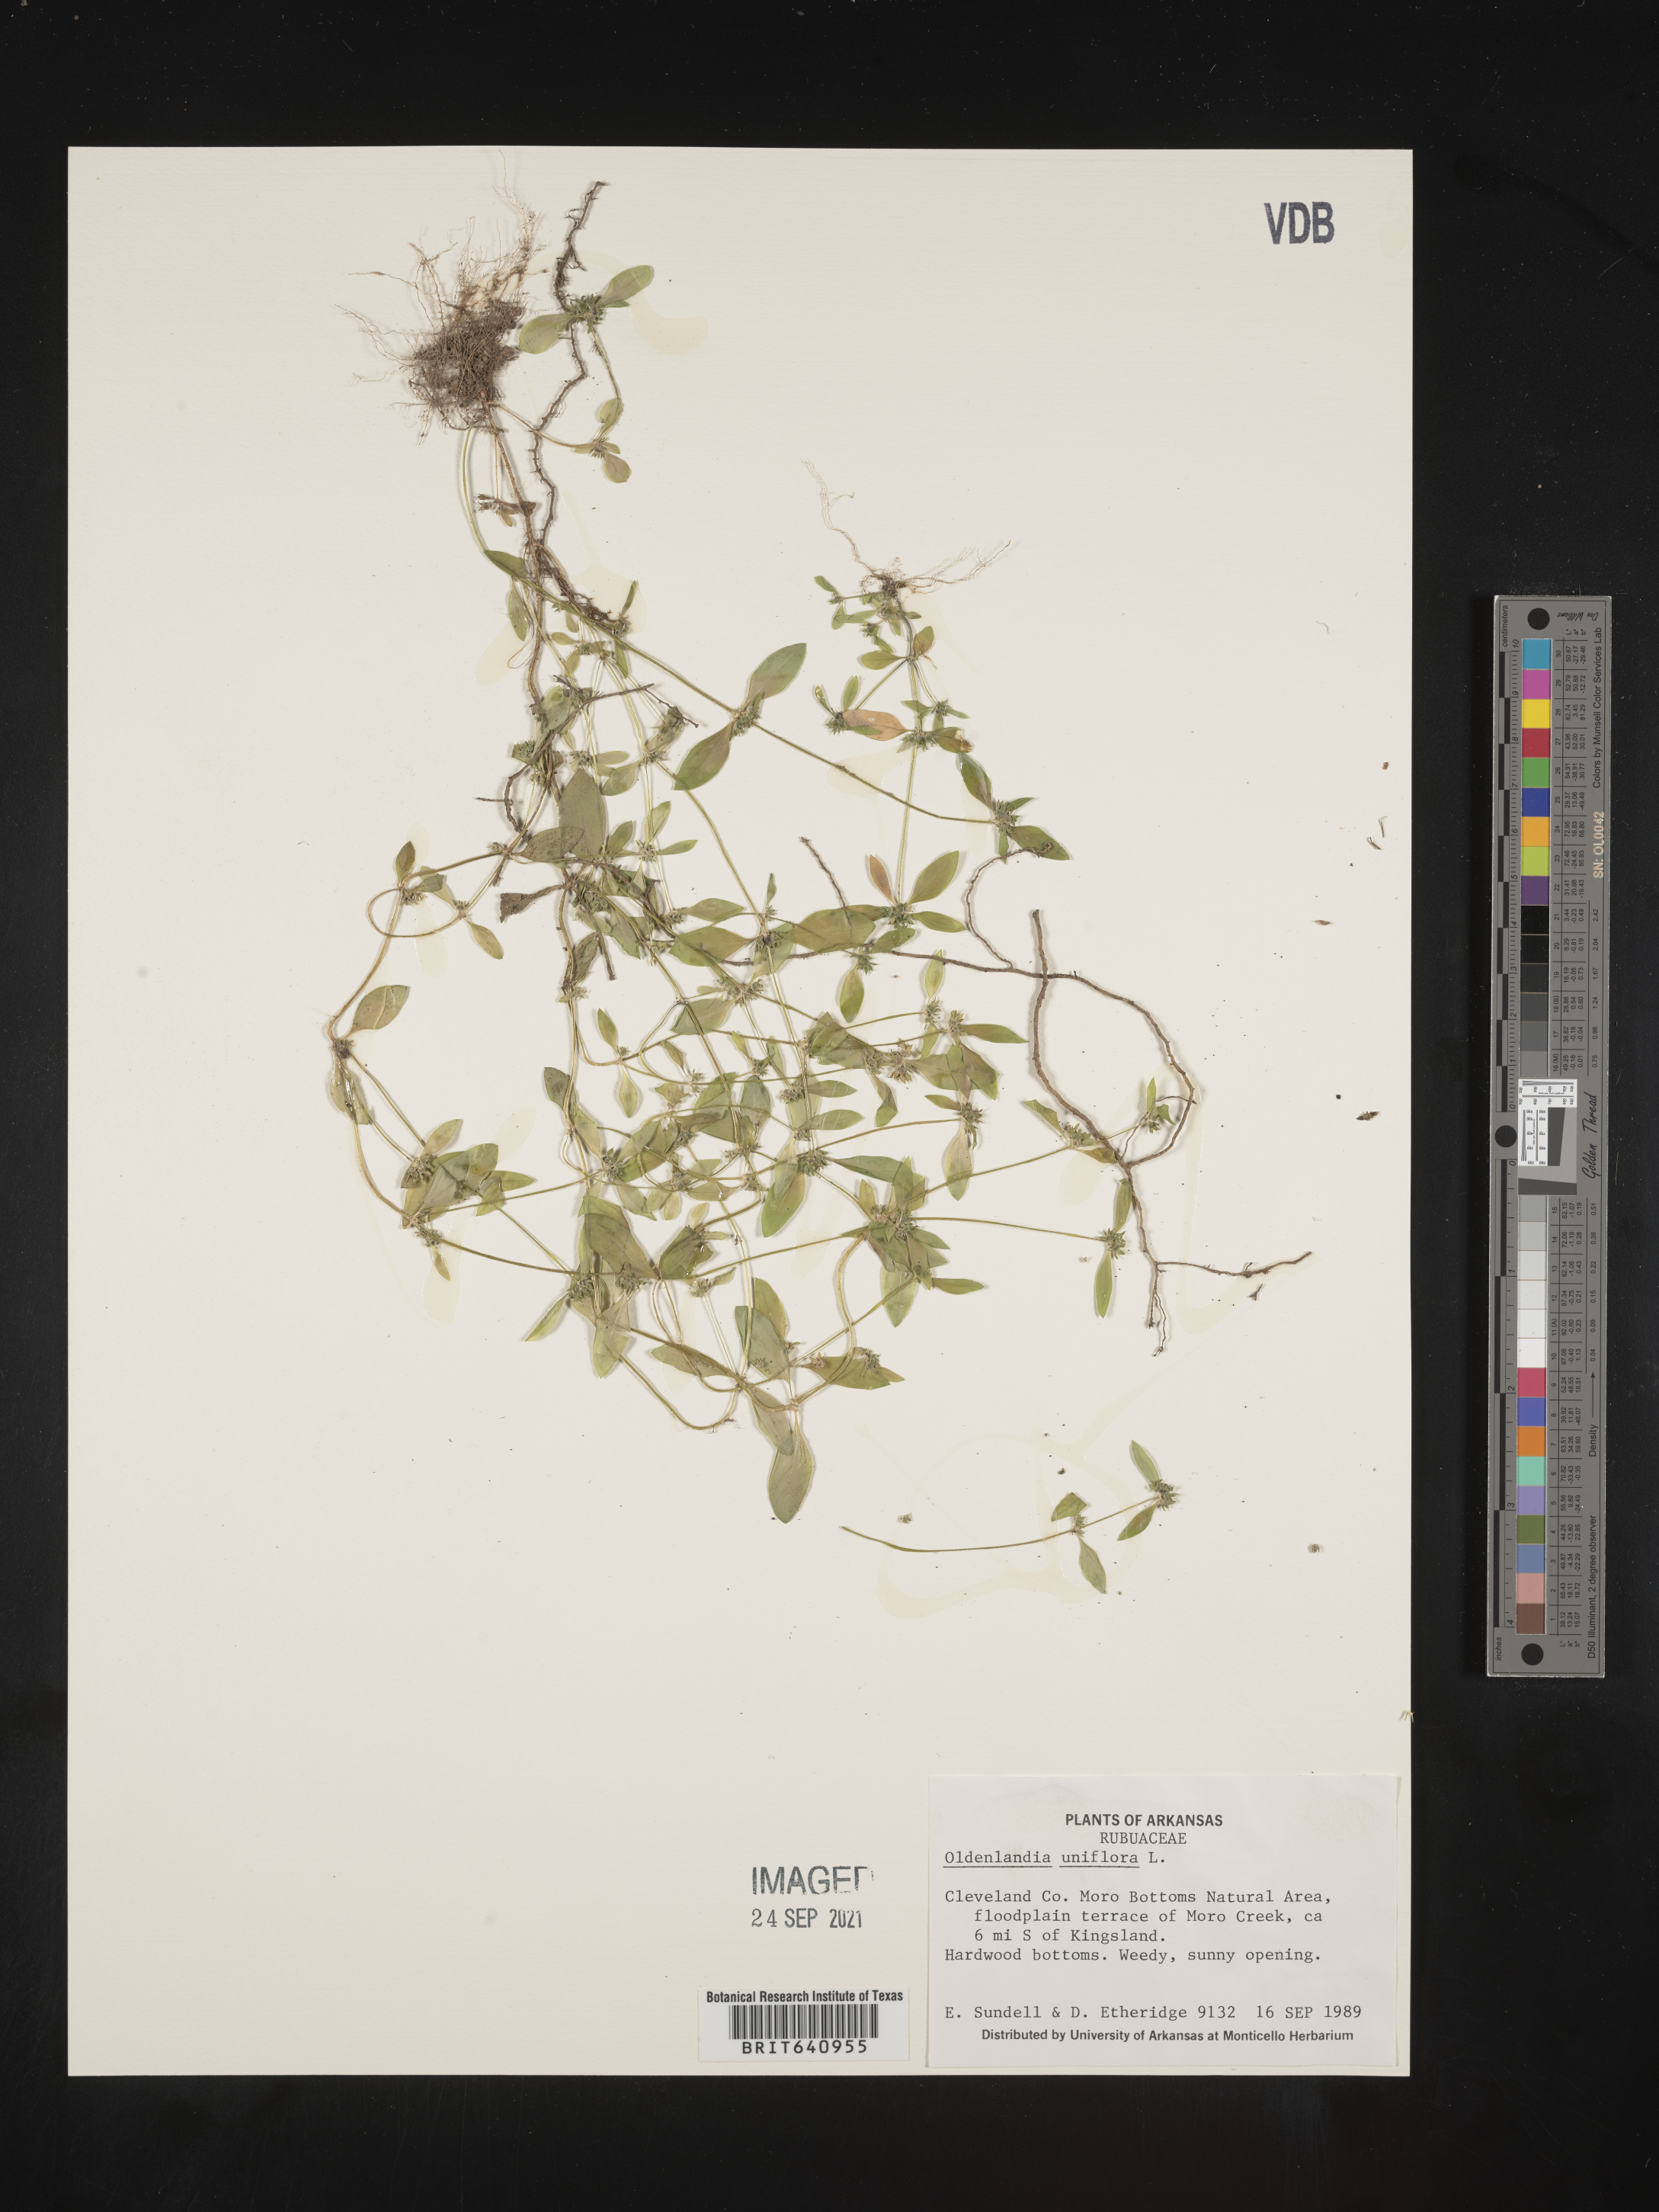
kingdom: Plantae
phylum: Tracheophyta
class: Magnoliopsida
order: Gentianales
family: Rubiaceae
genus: Edrastima
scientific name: Edrastima uniflora
